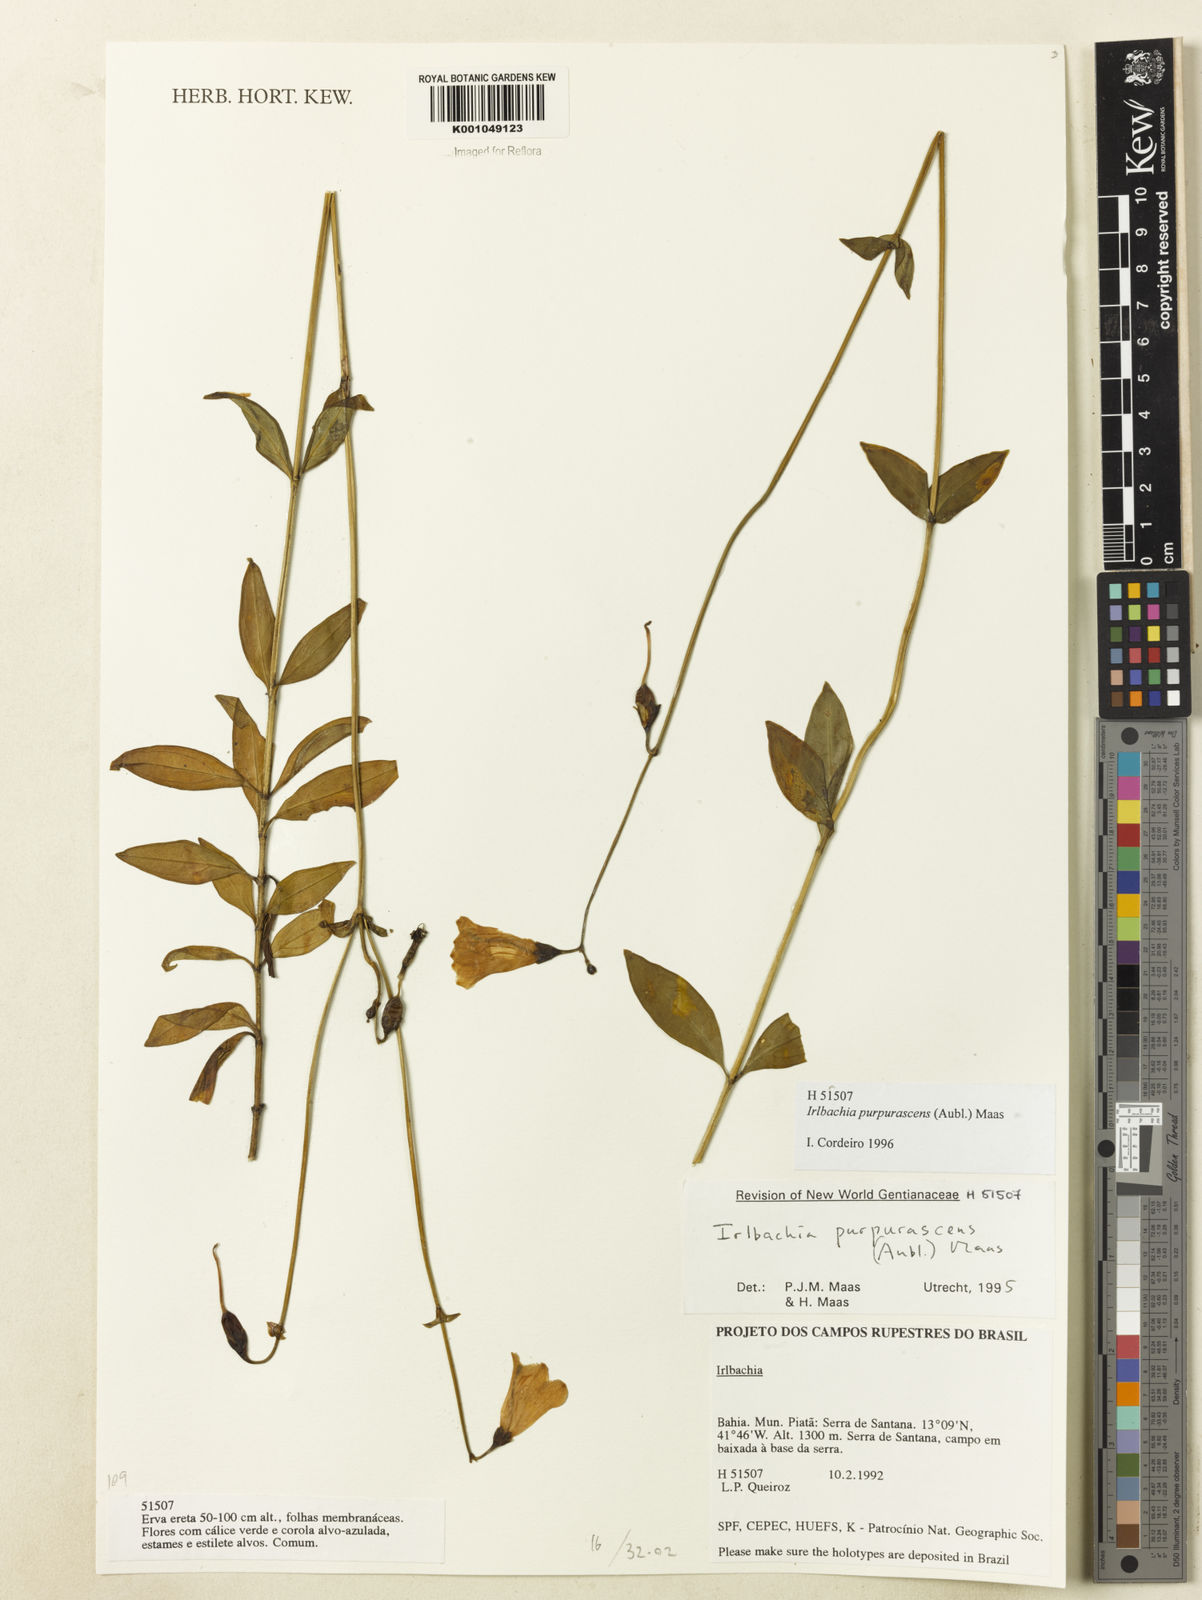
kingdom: Plantae
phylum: Tracheophyta
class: Magnoliopsida
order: Gentianales
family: Gentianaceae
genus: Chelonanthus
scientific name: Chelonanthus purpurascens
